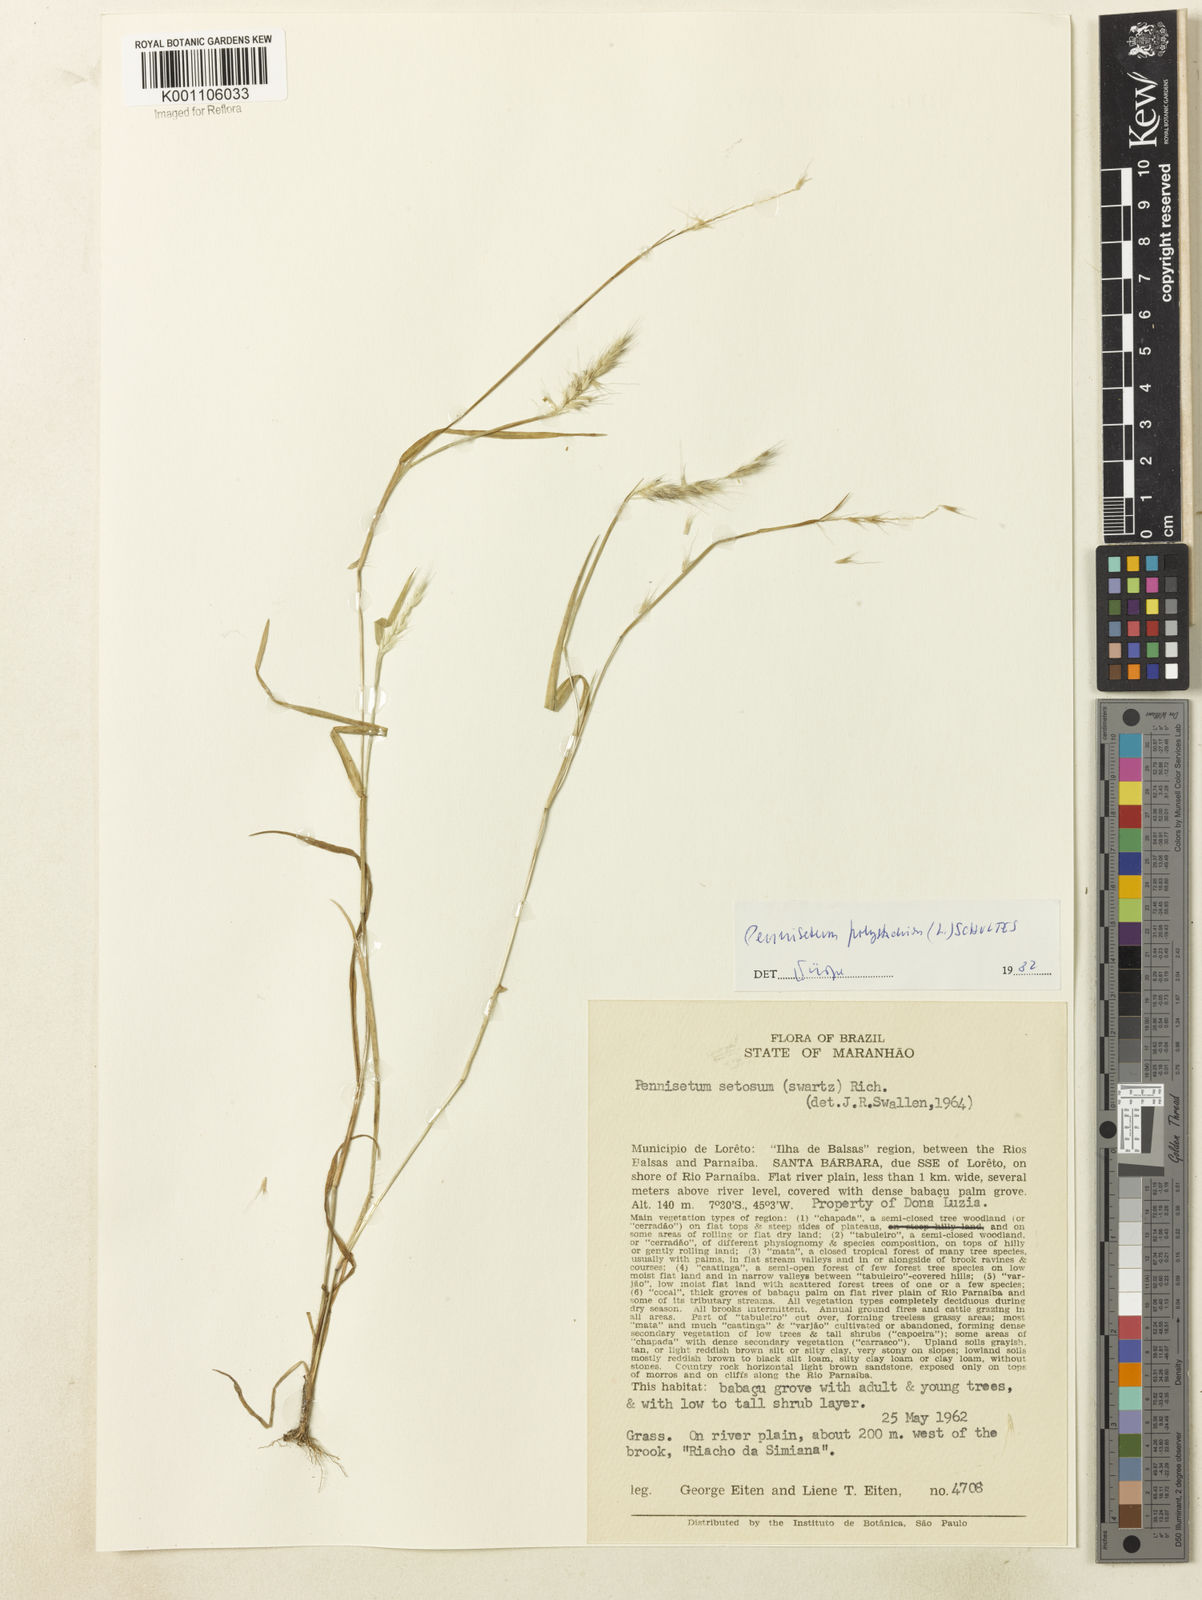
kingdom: Plantae
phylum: Tracheophyta
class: Liliopsida
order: Poales
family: Poaceae
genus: Setaria
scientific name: Setaria parviflora
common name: Knotroot bristle-grass
